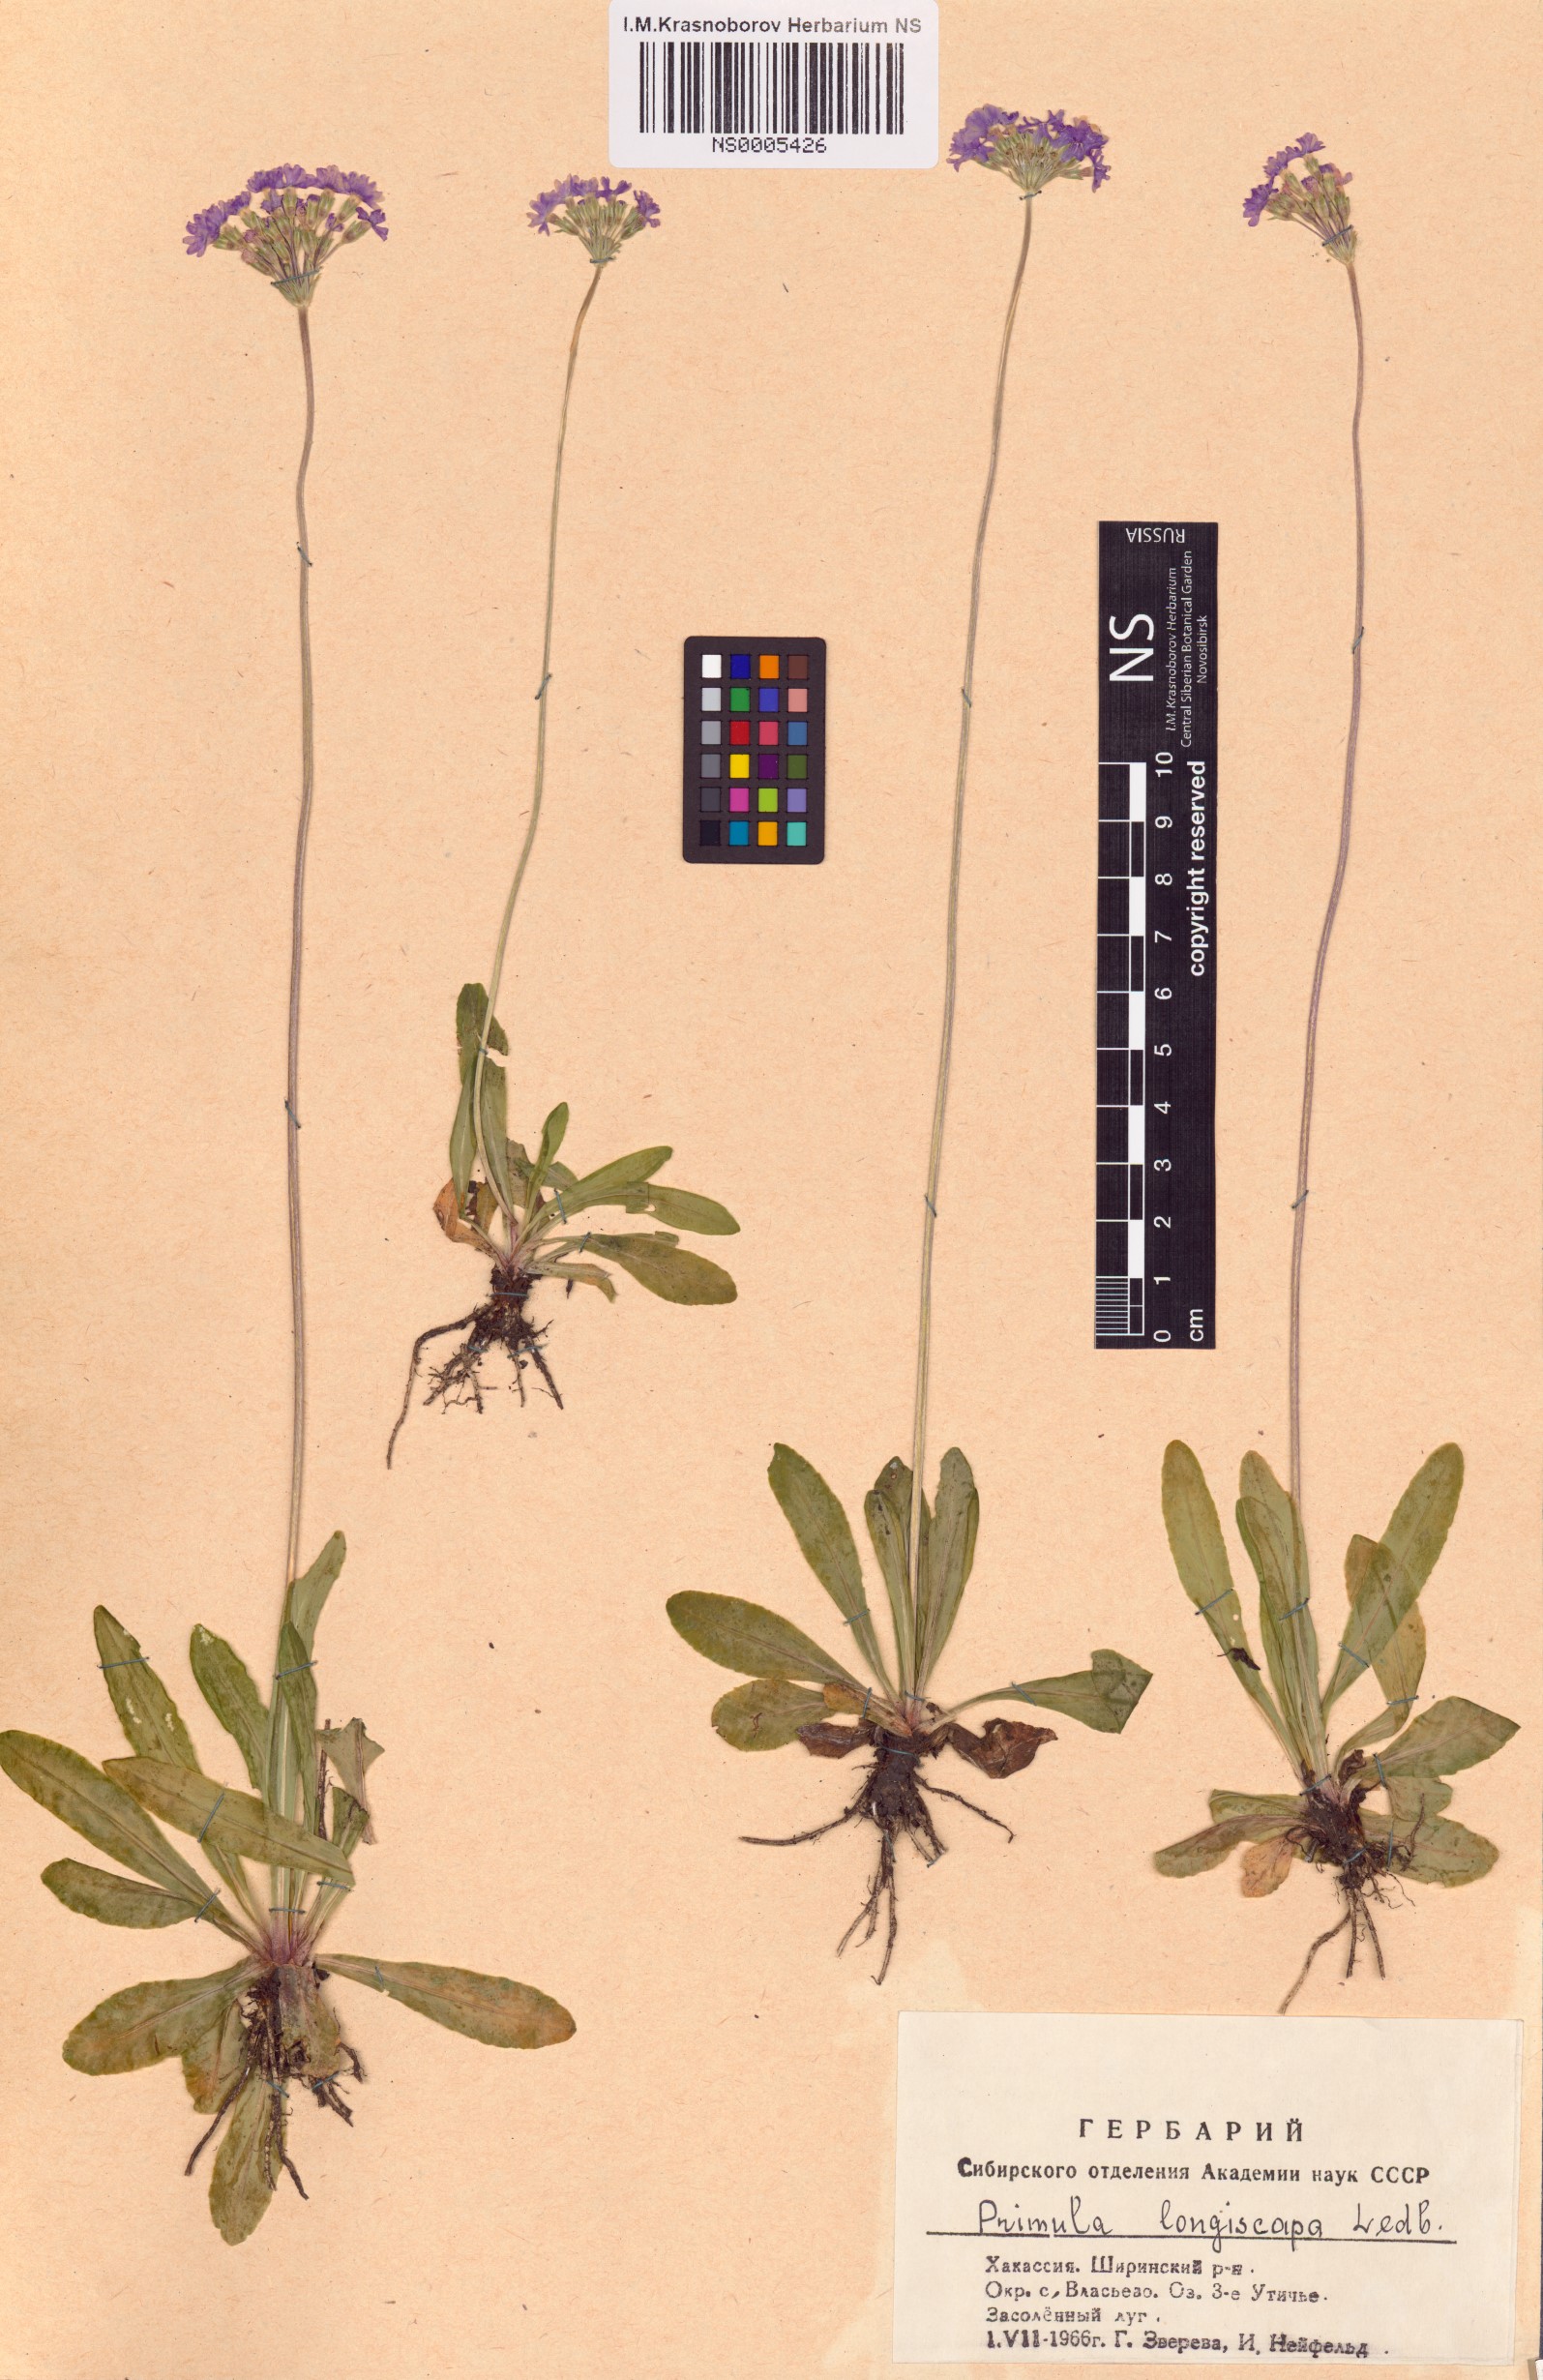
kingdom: Plantae
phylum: Tracheophyta
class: Magnoliopsida
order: Ericales
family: Primulaceae
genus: Primula
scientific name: Primula longiscapa
